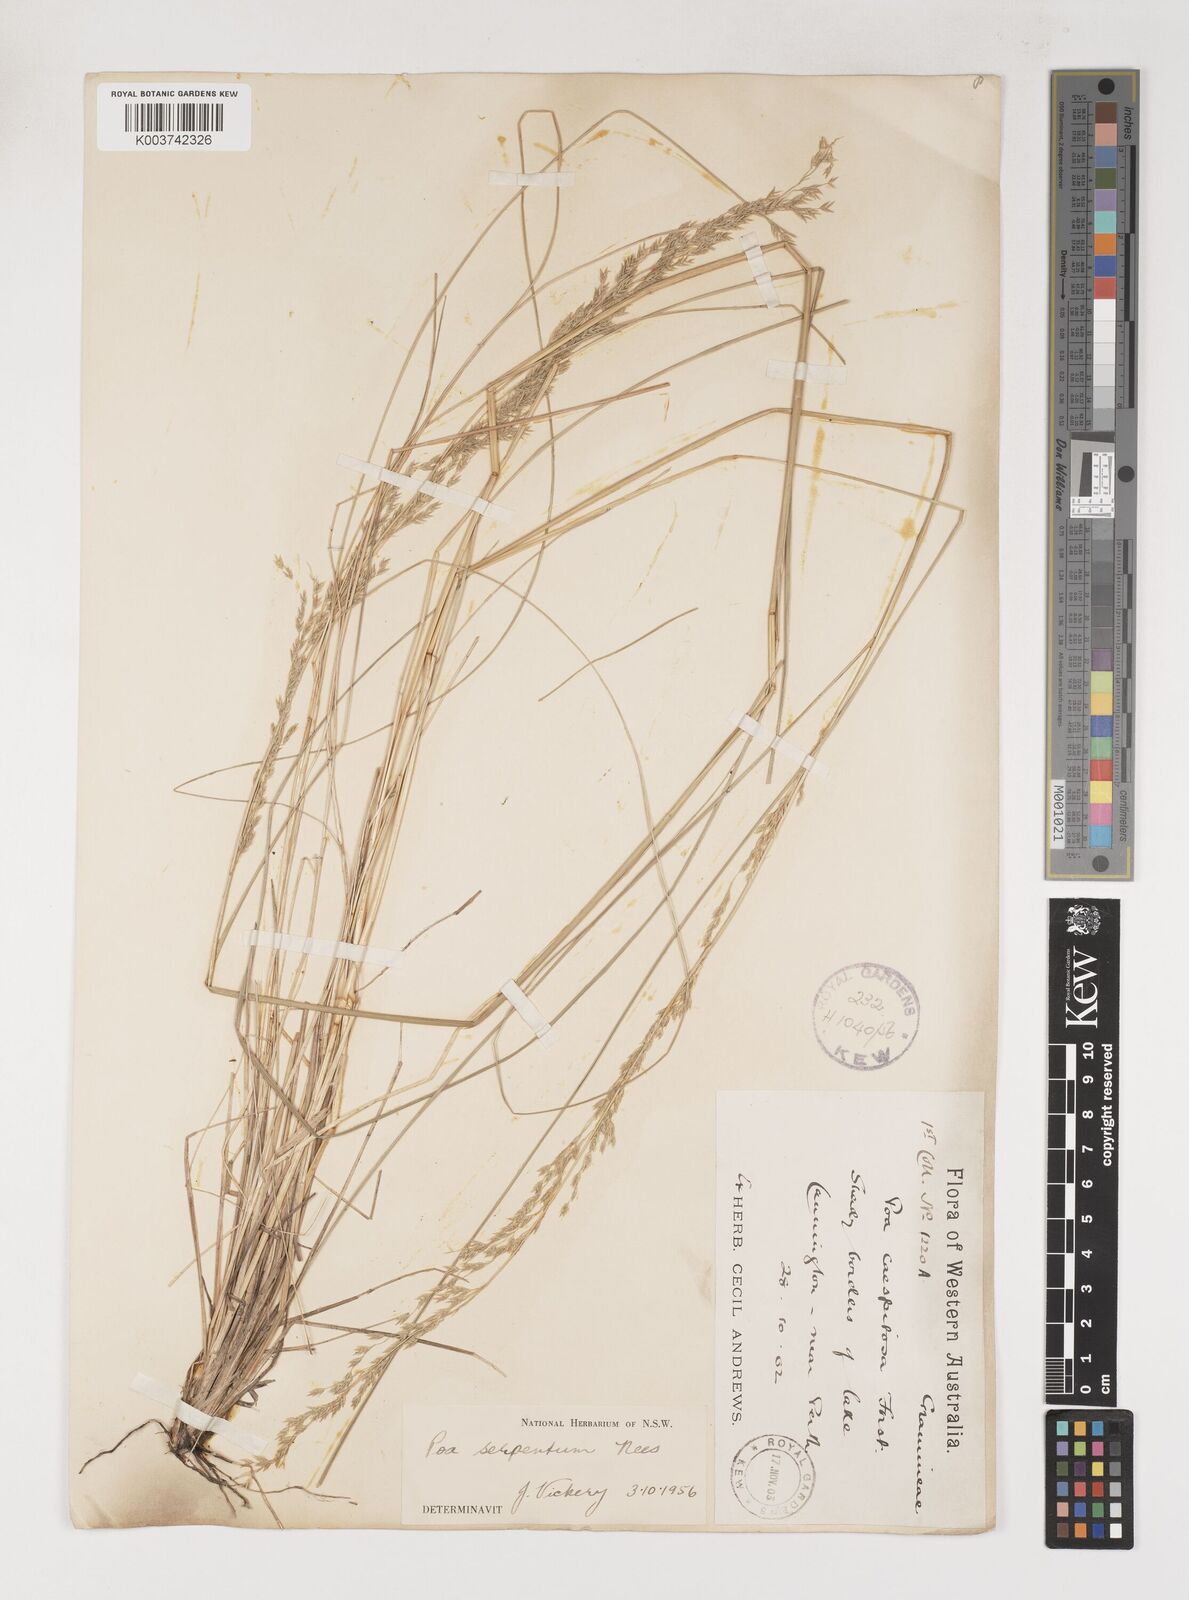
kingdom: Plantae
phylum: Tracheophyta
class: Liliopsida
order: Poales
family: Poaceae
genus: Poa
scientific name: Poa porphyroclados
